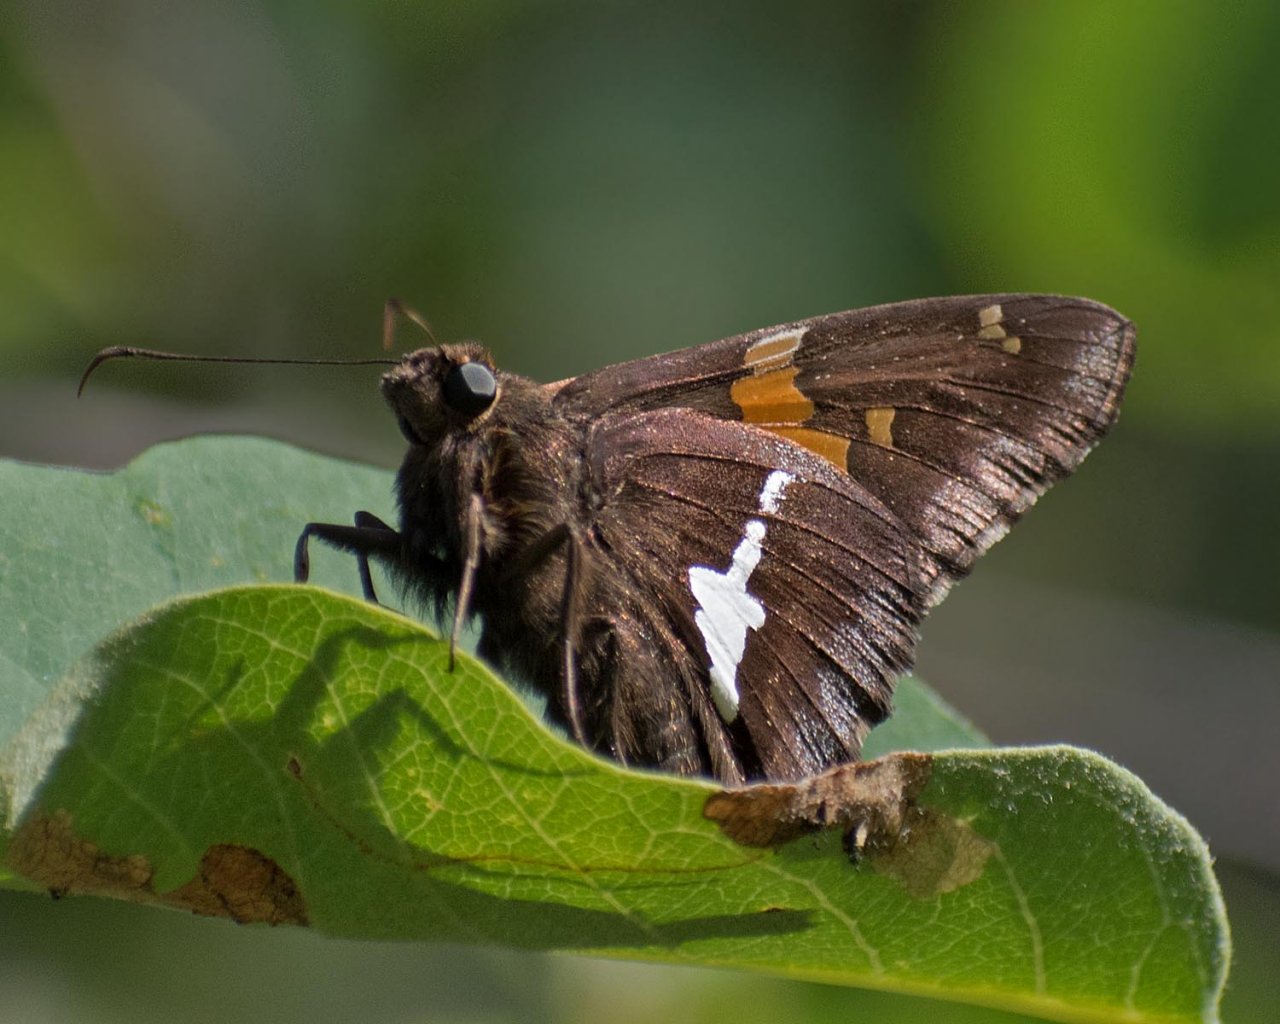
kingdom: Animalia
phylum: Arthropoda
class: Insecta
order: Lepidoptera
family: Hesperiidae
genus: Epargyreus
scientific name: Epargyreus clarus
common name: Silver-spotted Skipper
